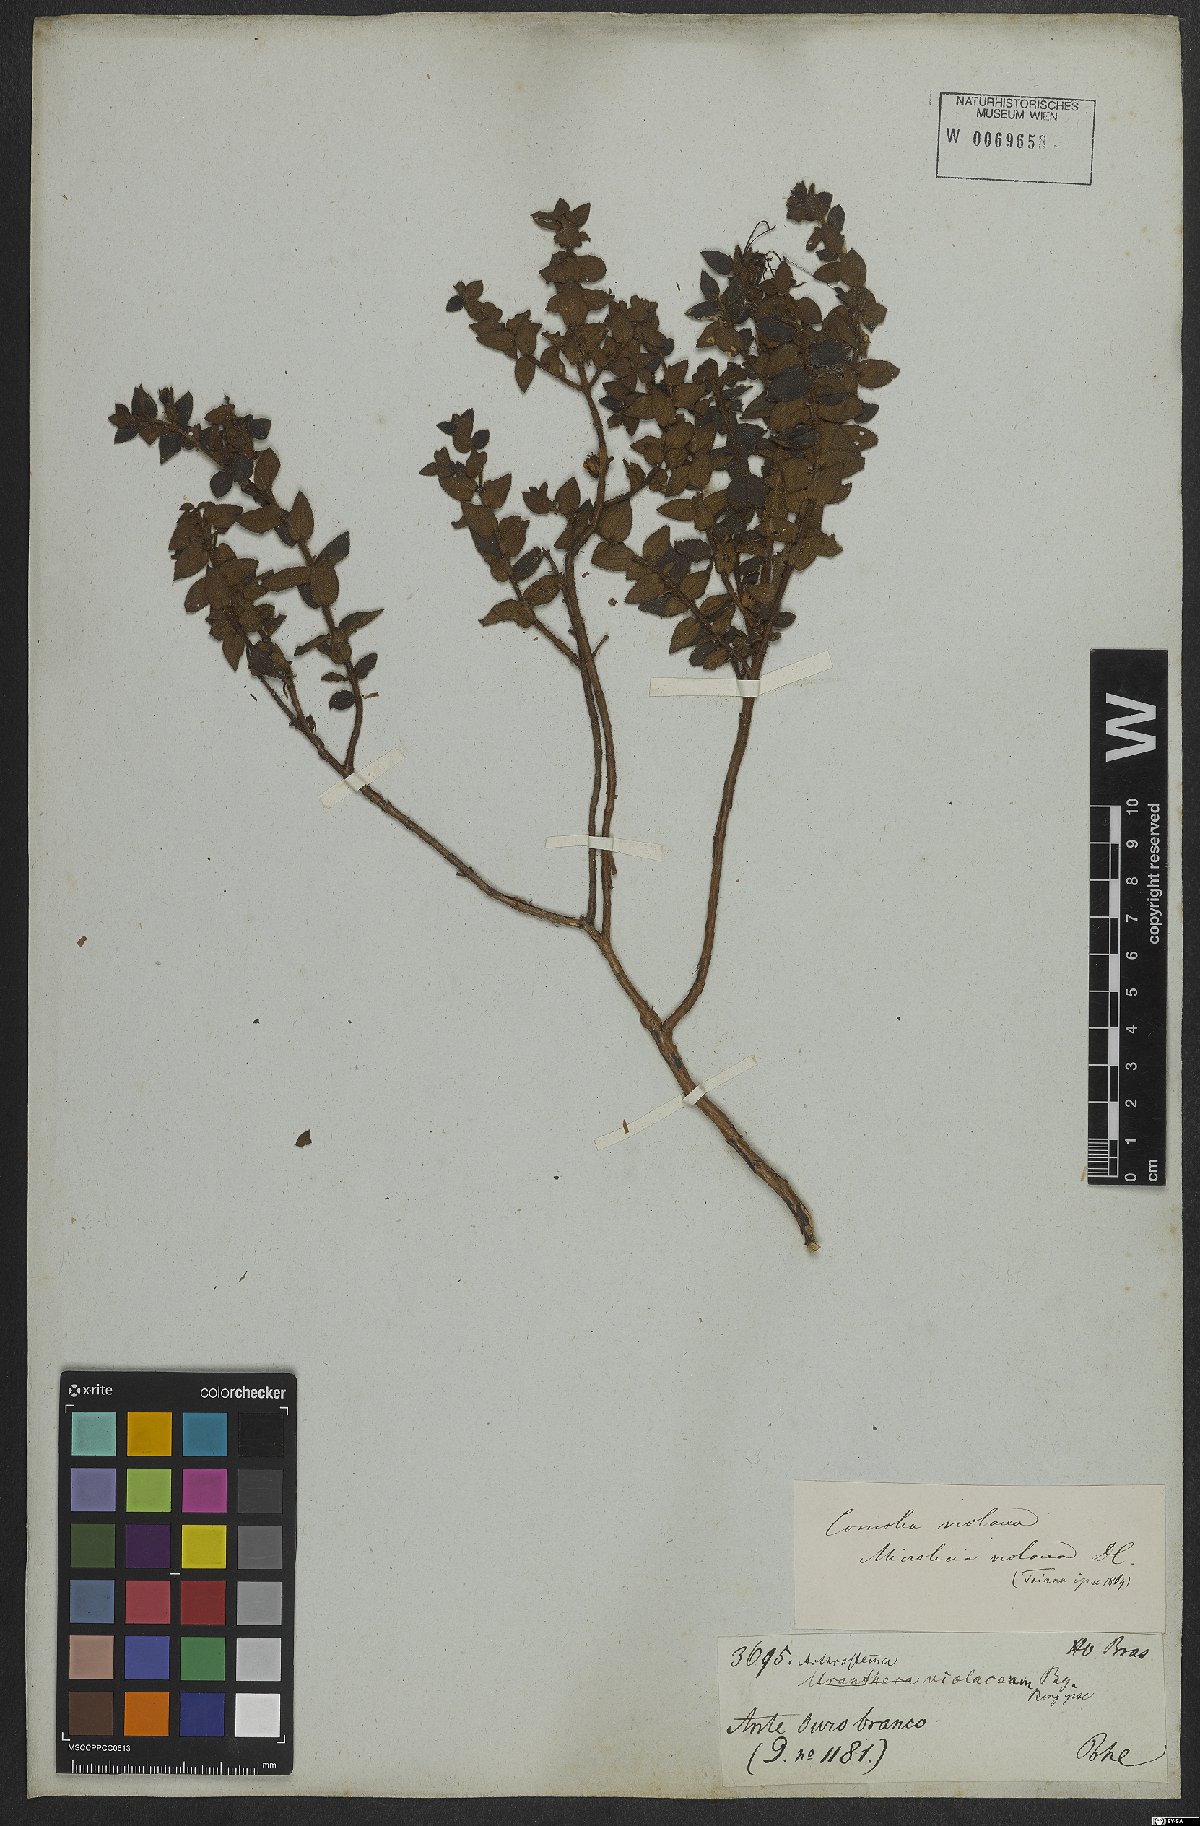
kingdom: Plantae
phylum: Tracheophyta
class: Magnoliopsida
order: Myrtales
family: Melastomataceae
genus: Miconia
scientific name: Miconia ceramicarpa
